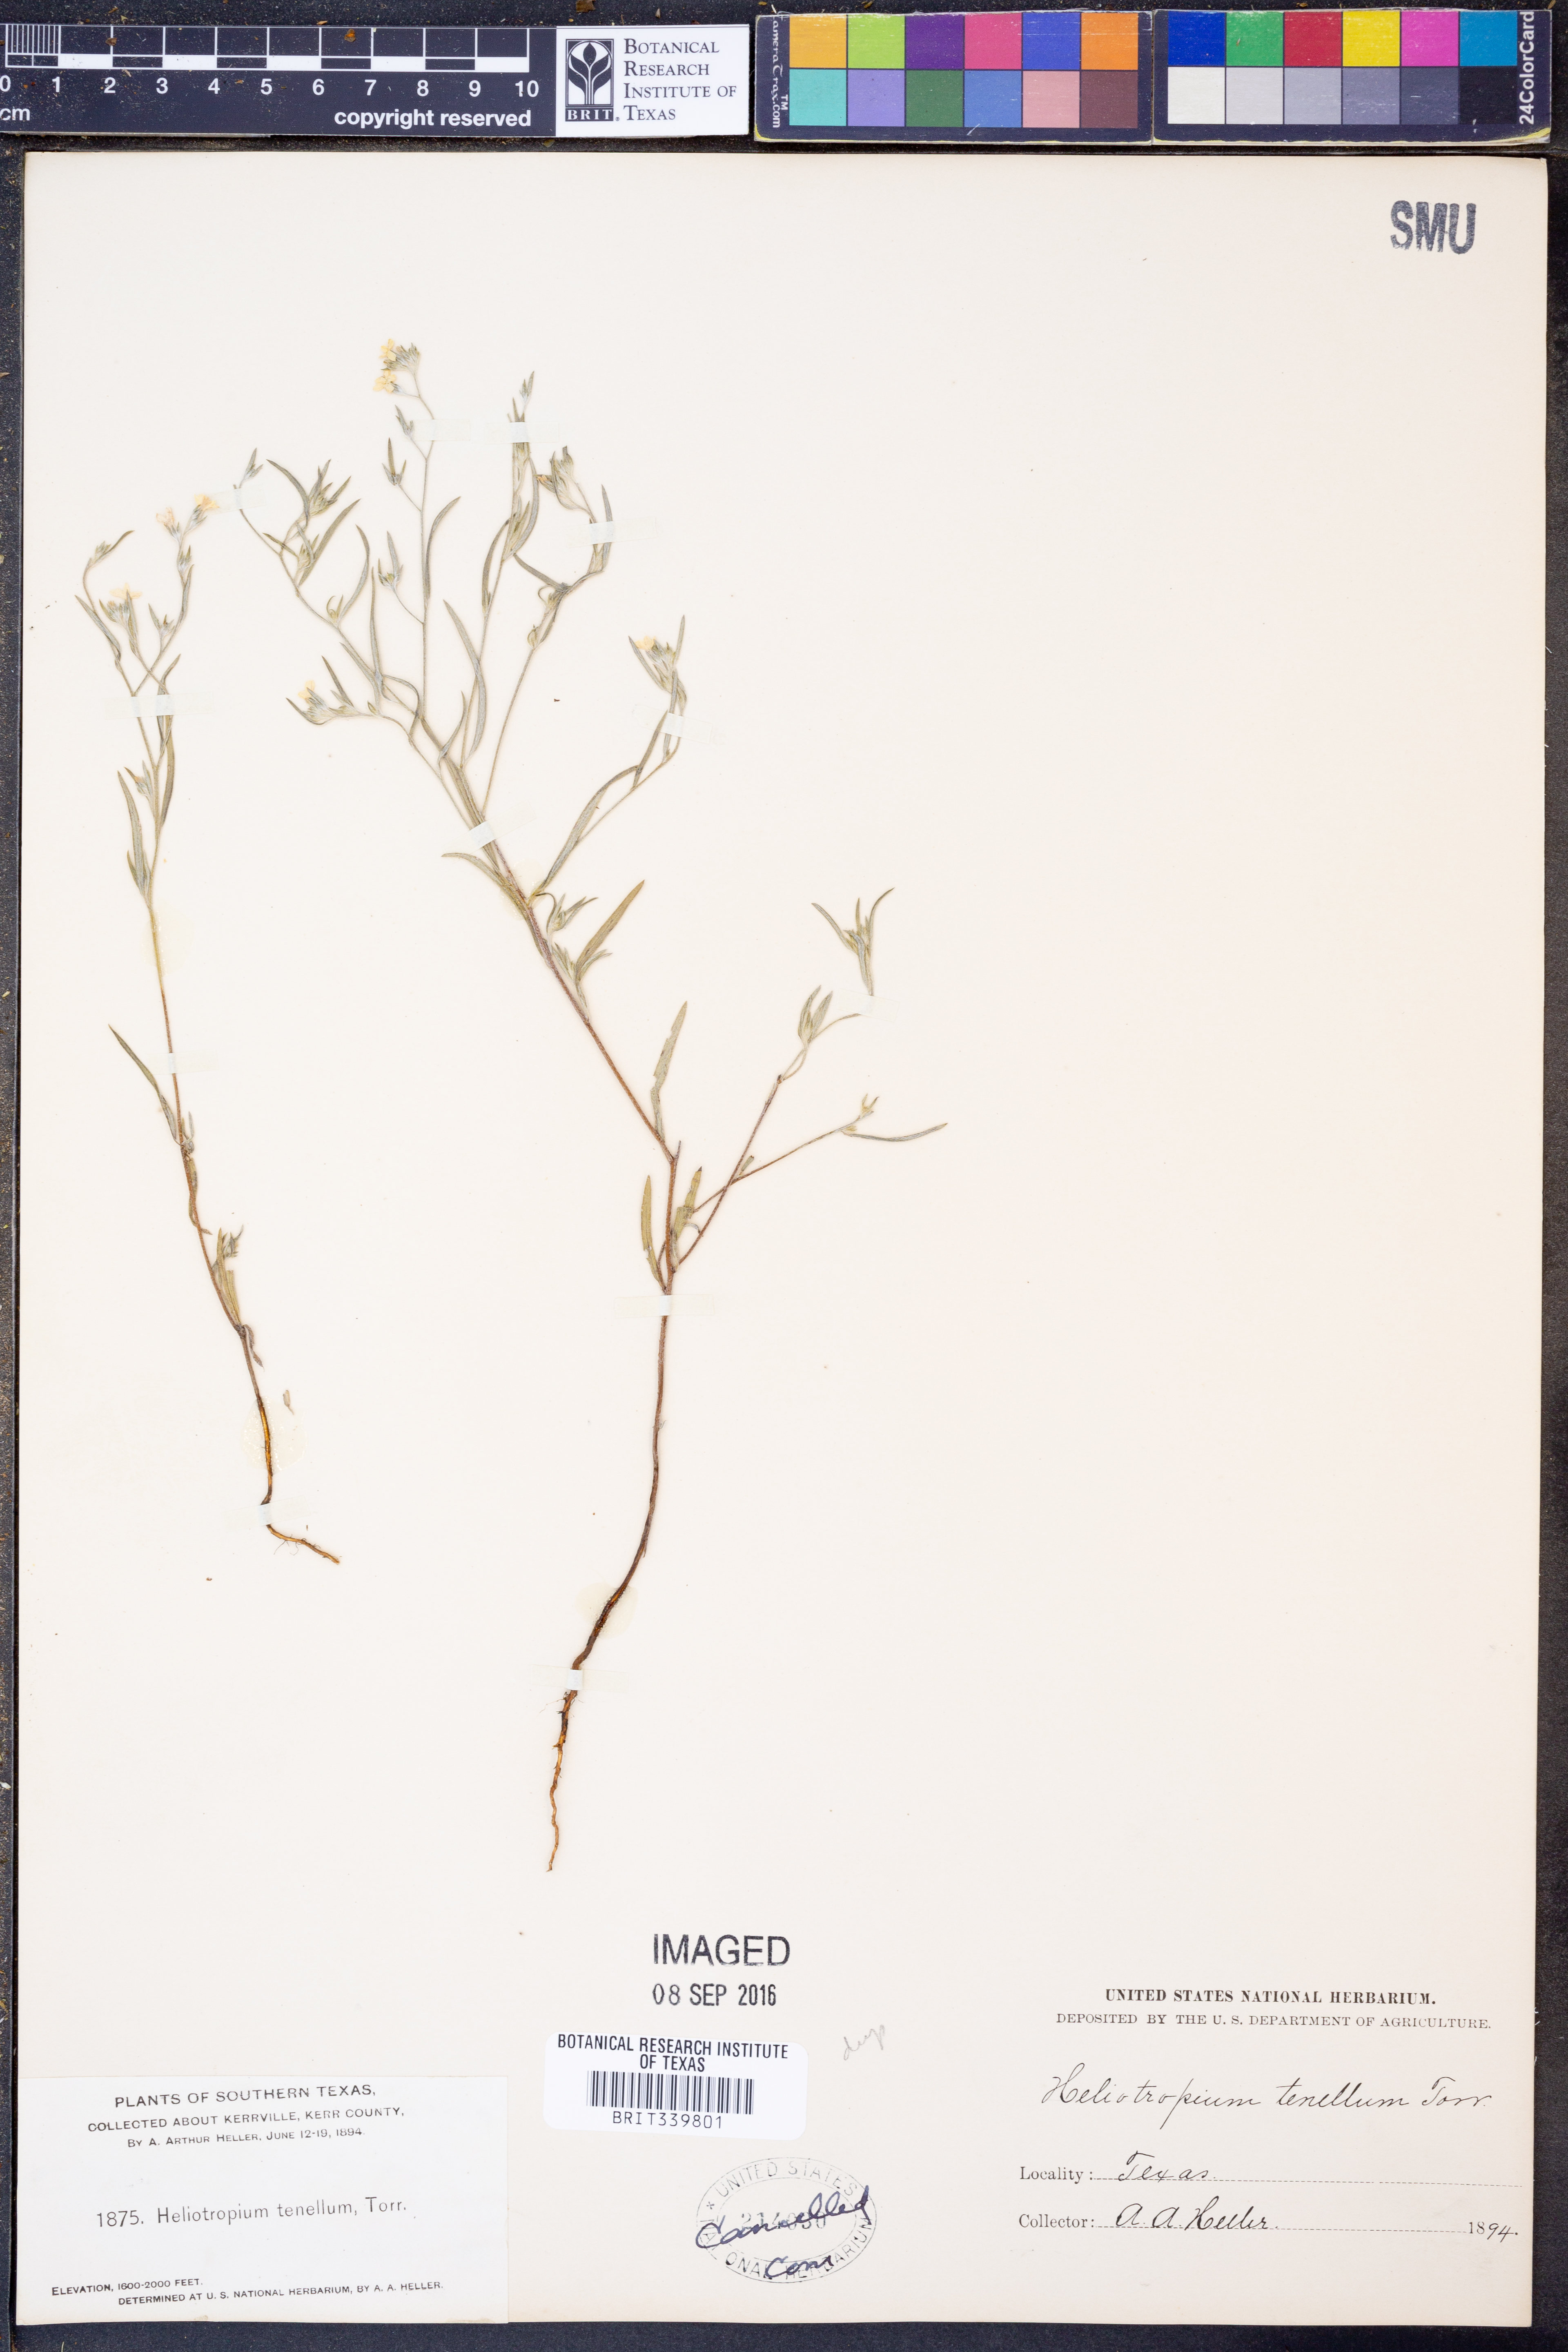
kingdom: Plantae
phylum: Tracheophyta
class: Magnoliopsida
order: Boraginales
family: Heliotropiaceae
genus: Euploca
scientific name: Euploca tenella
